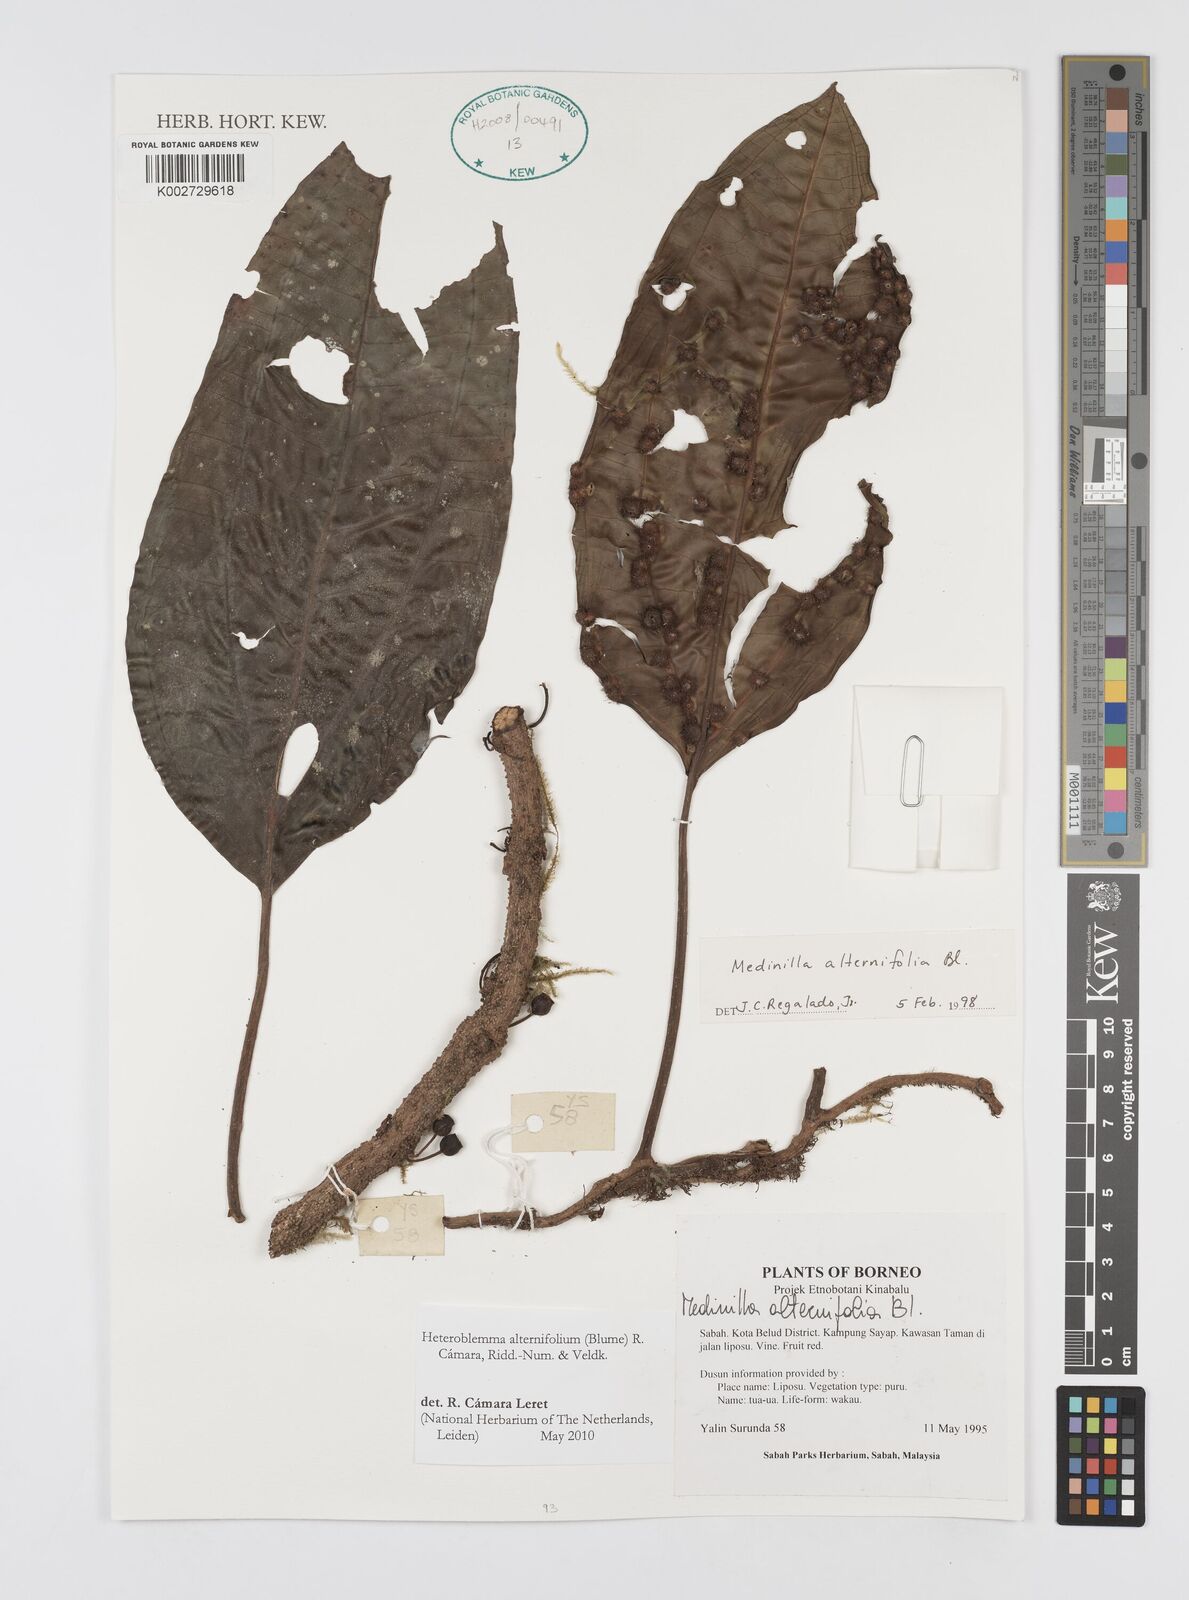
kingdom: Plantae
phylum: Tracheophyta
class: Magnoliopsida
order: Myrtales
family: Melastomataceae
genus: Heteroblemma
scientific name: Heteroblemma alternifolium
